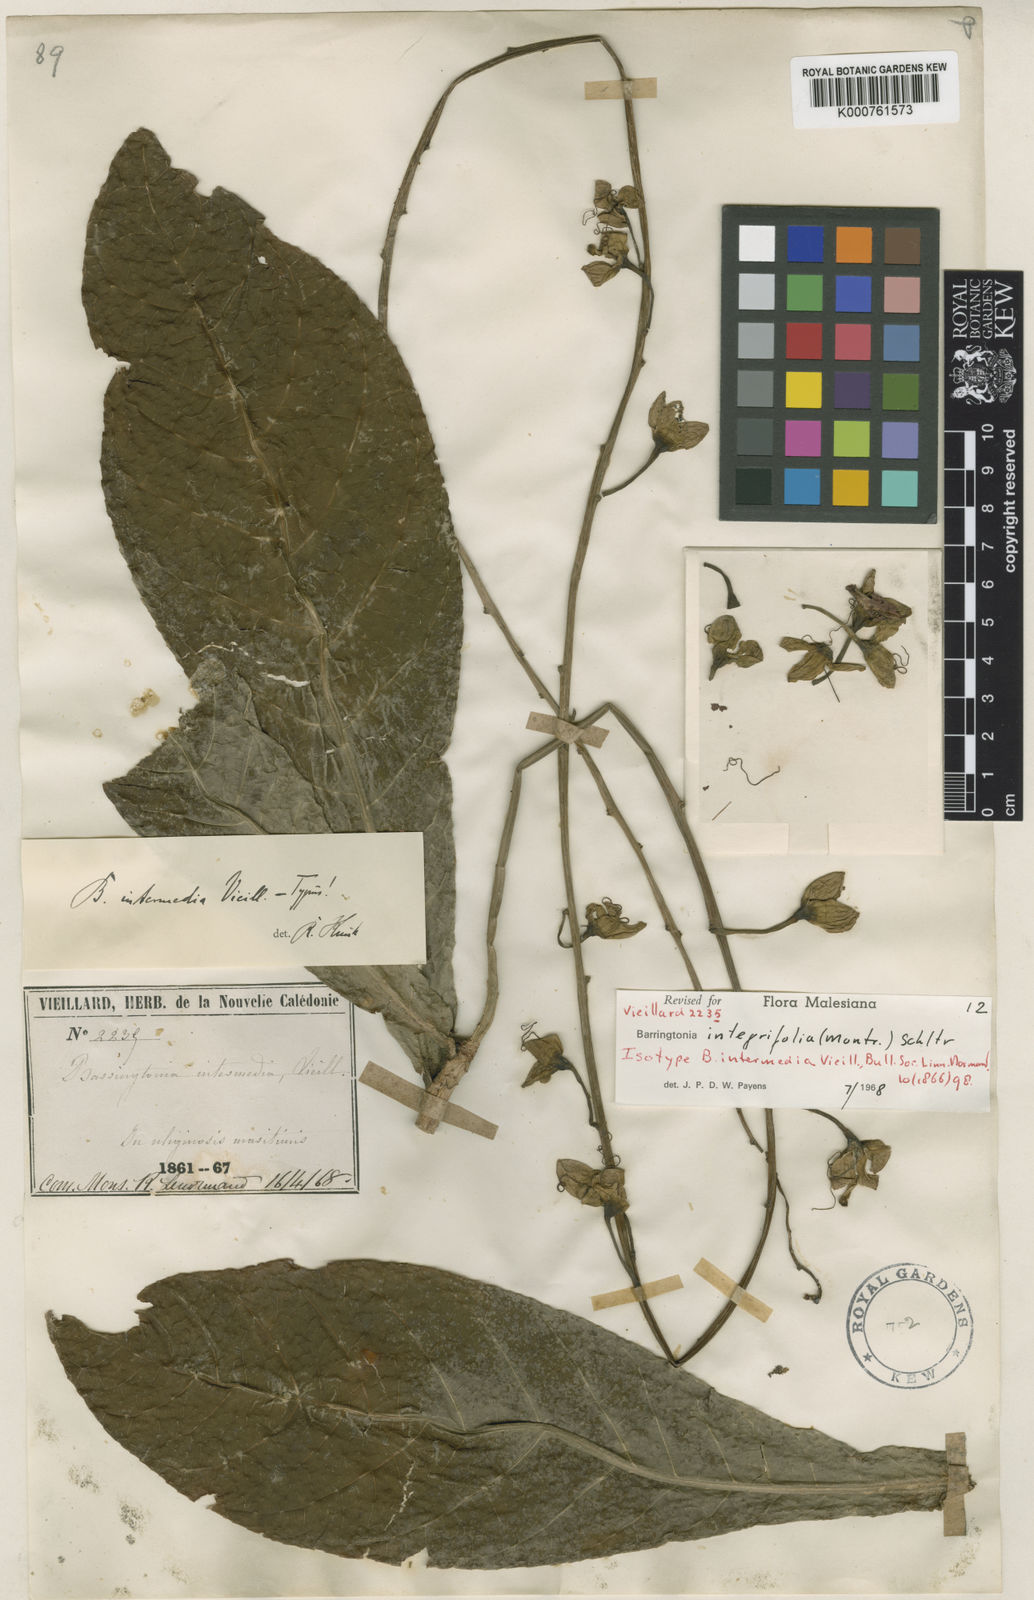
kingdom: Plantae
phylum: Tracheophyta
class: Magnoliopsida
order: Ericales
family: Lecythidaceae
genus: Barringtonia
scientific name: Barringtonia integrifolia
